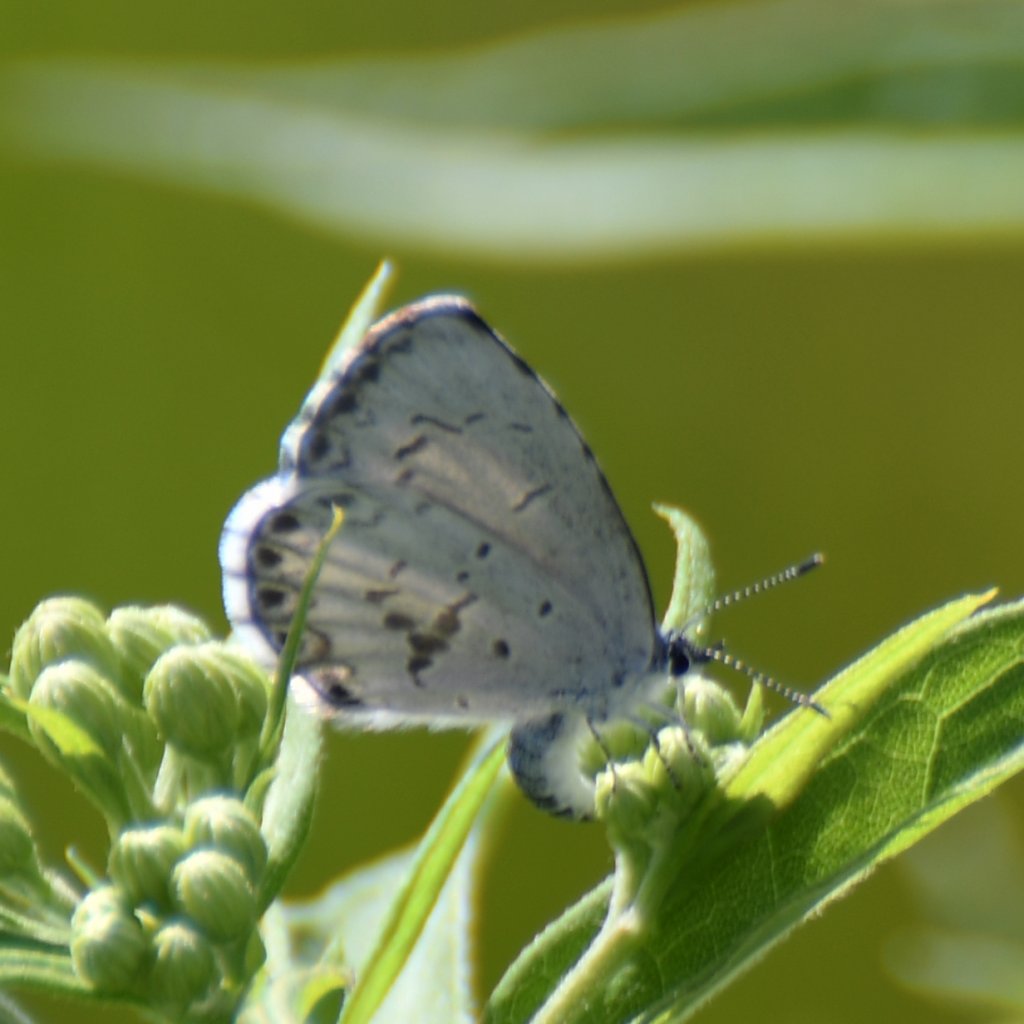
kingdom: Animalia
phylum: Arthropoda
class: Insecta
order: Lepidoptera
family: Lycaenidae
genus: Celastrina
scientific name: Celastrina lucia
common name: Northern Spring Azure
